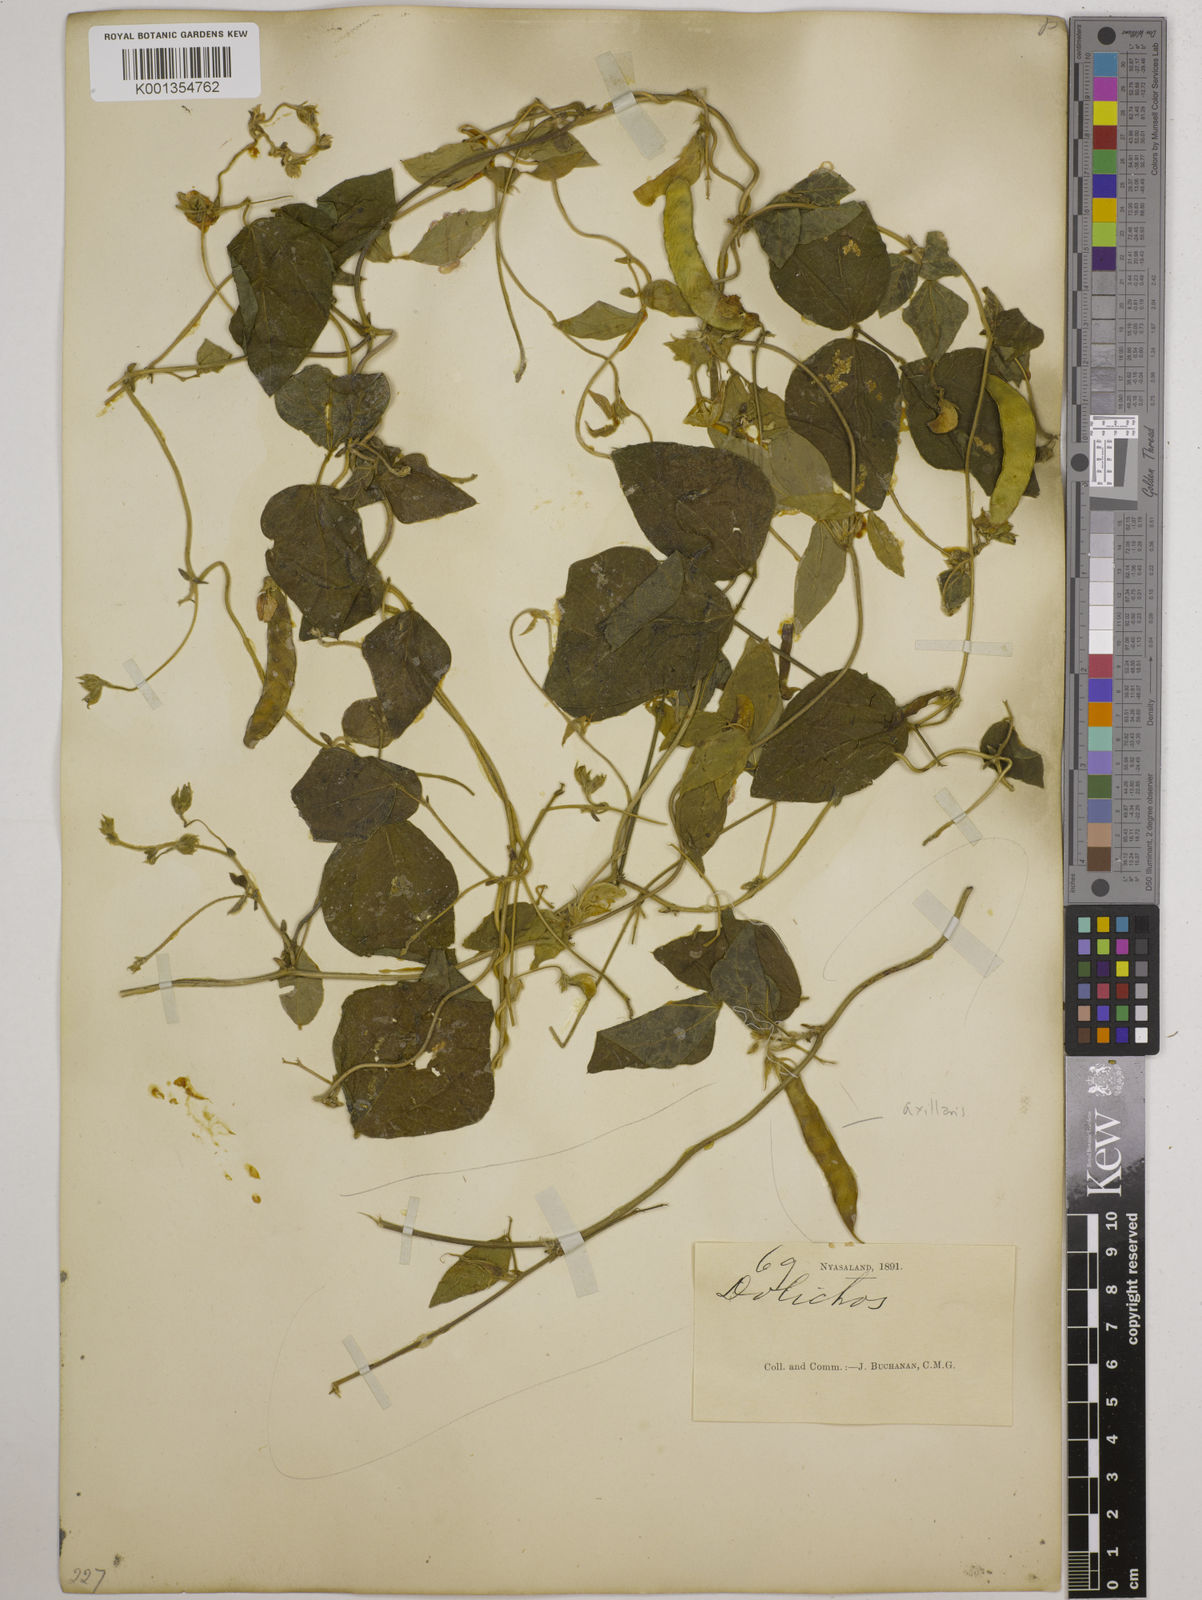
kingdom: Plantae
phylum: Tracheophyta
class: Magnoliopsida
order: Fabales
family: Fabaceae
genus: Dolichos
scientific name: Dolichos
